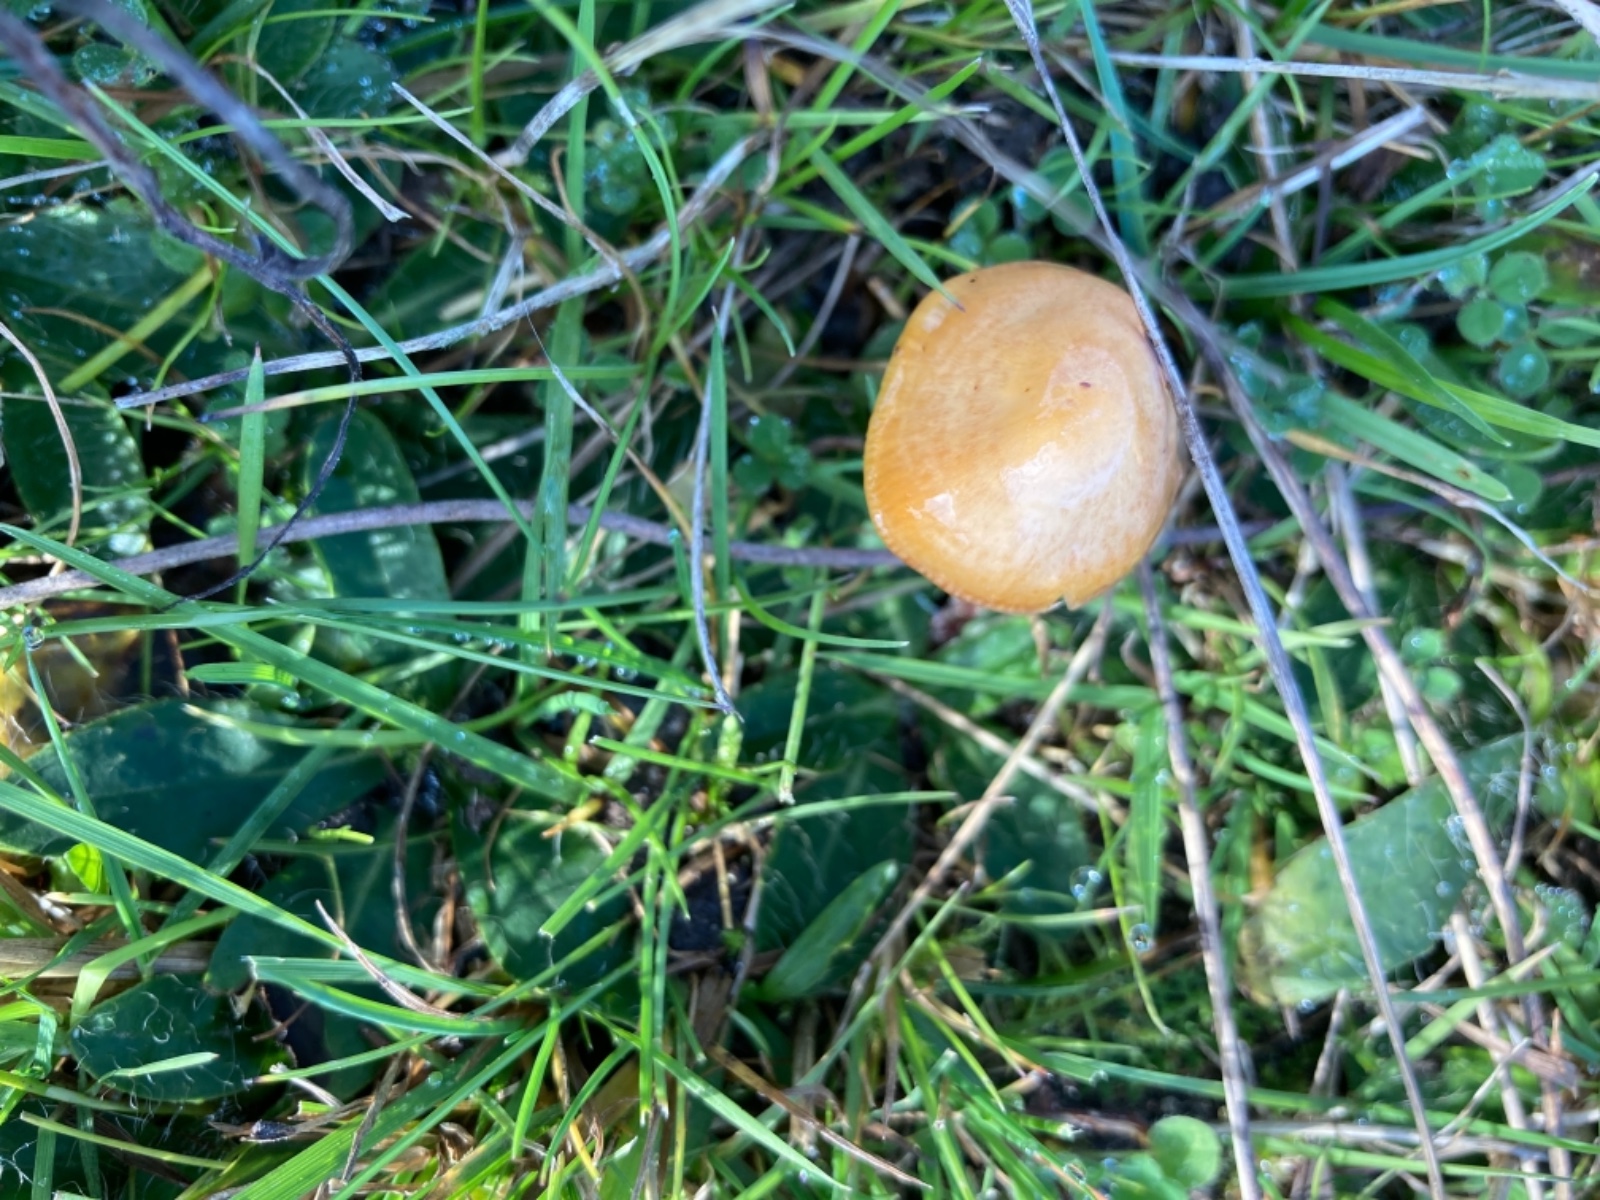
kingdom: Fungi
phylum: Basidiomycota
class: Agaricomycetes
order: Agaricales
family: Hygrophoraceae
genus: Gliophorus
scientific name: Gliophorus psittacinus
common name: papegøje-vokshat
